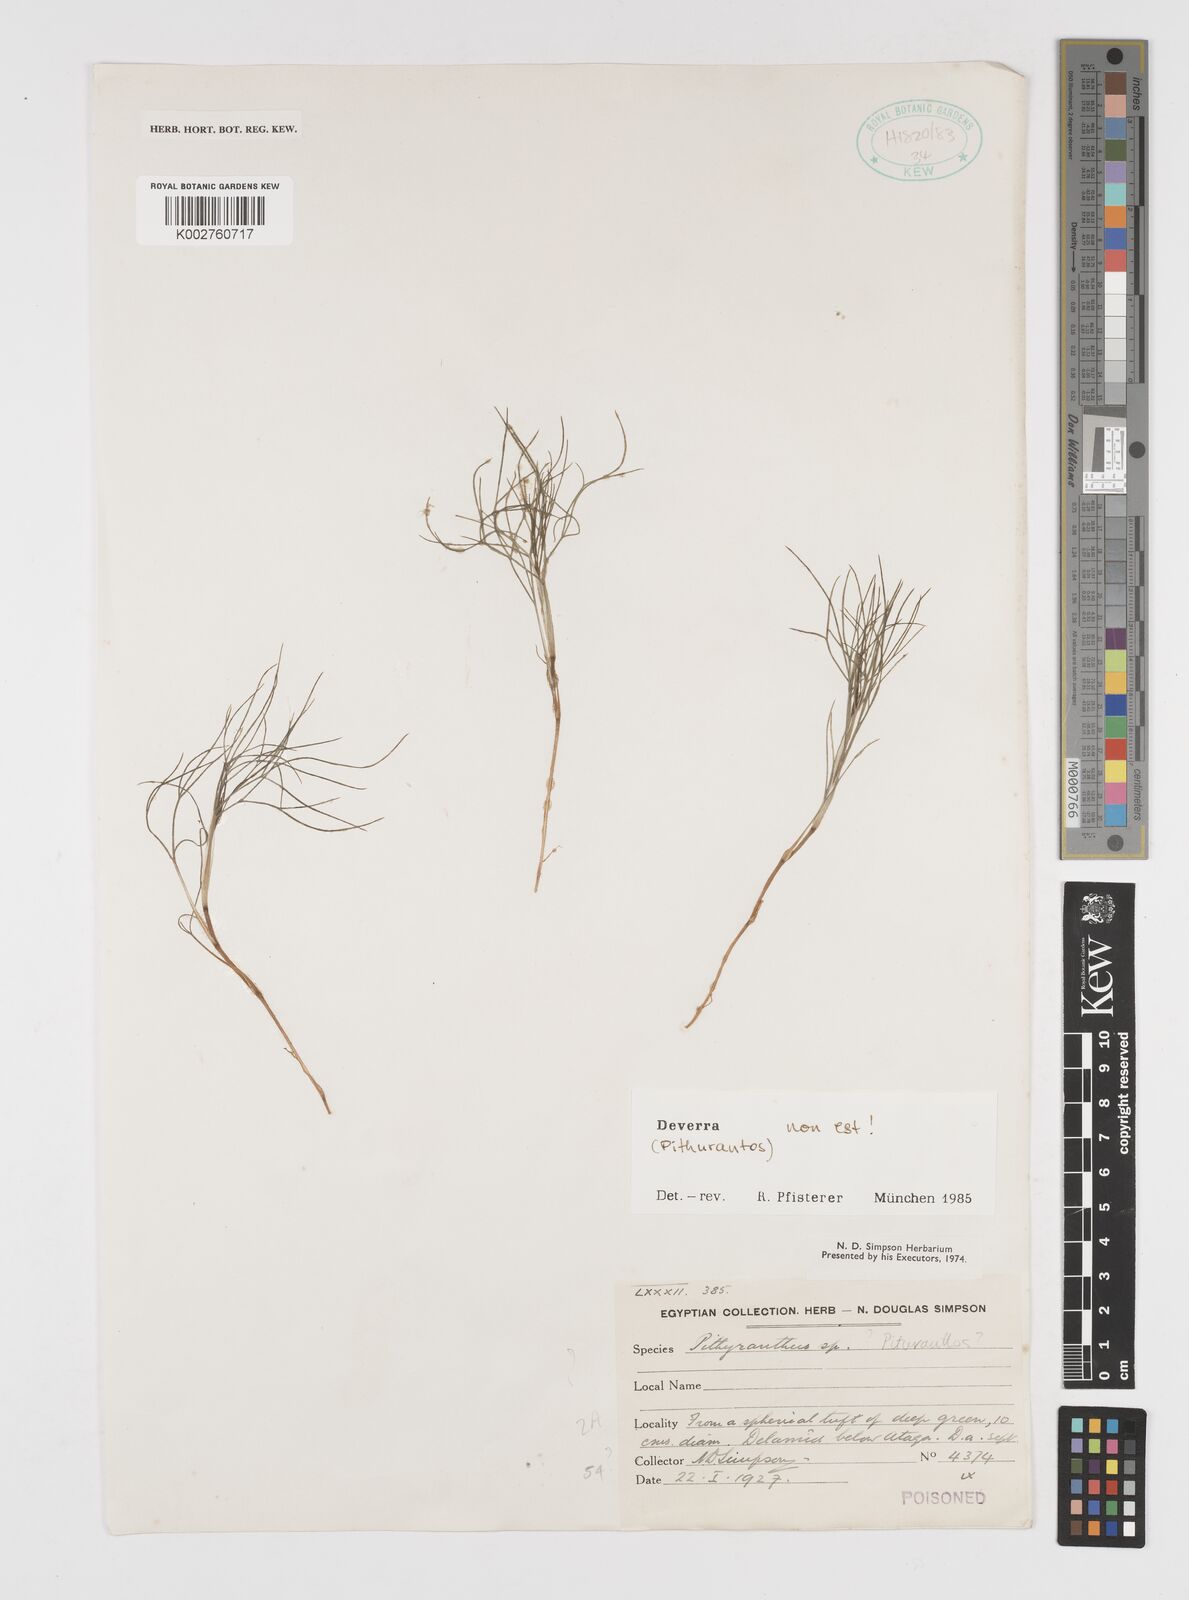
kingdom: Plantae
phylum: Tracheophyta
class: Magnoliopsida
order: Apiales
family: Apiaceae
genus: Deverra
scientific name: Deverra
